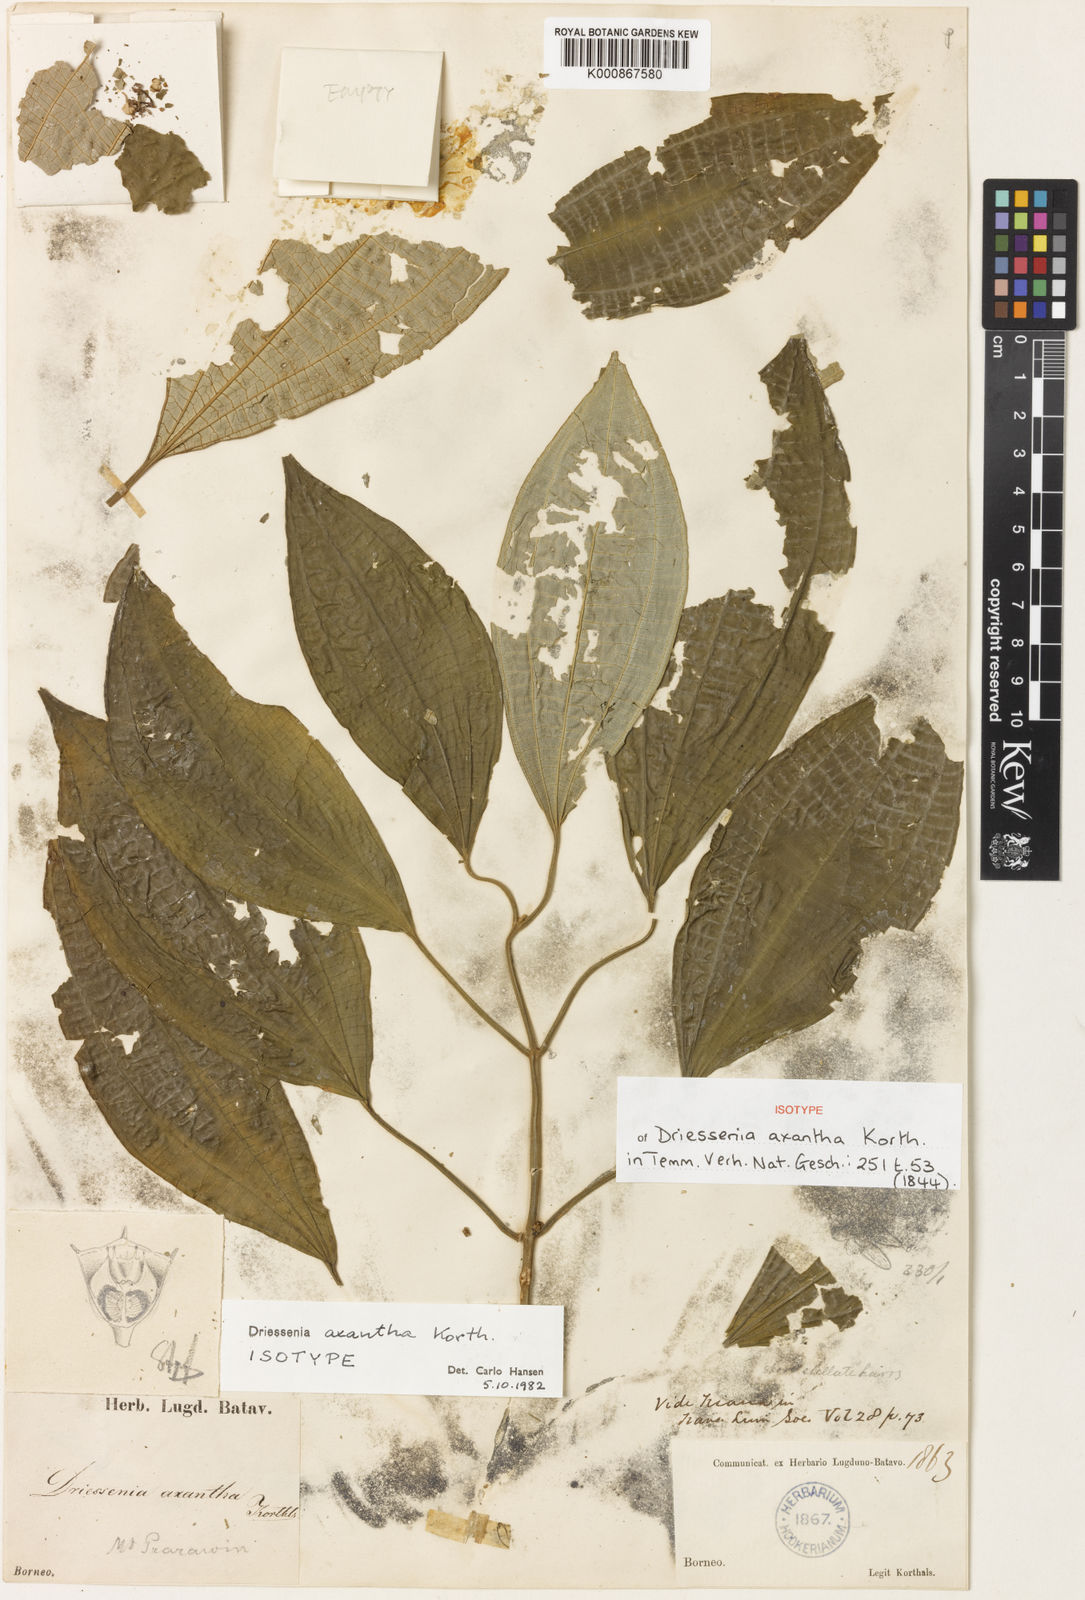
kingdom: Plantae
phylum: Tracheophyta
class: Magnoliopsida
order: Myrtales
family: Melastomataceae
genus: Driessenia
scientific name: Driessenia axantha
